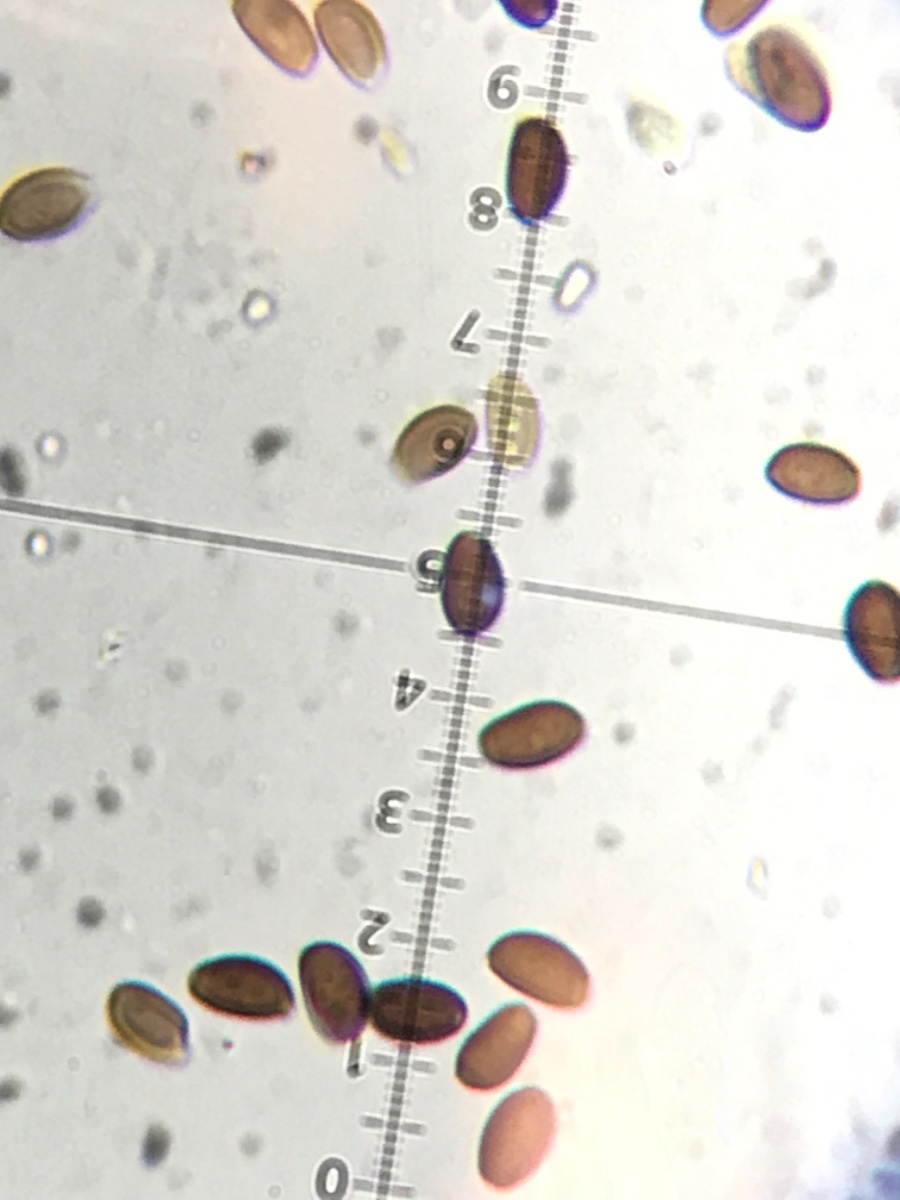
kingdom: Fungi
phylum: Basidiomycota
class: Agaricomycetes
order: Agaricales
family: Bolbitiaceae
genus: Panaeolus
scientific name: Panaeolus guttulatus
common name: dråbe-glanshat
